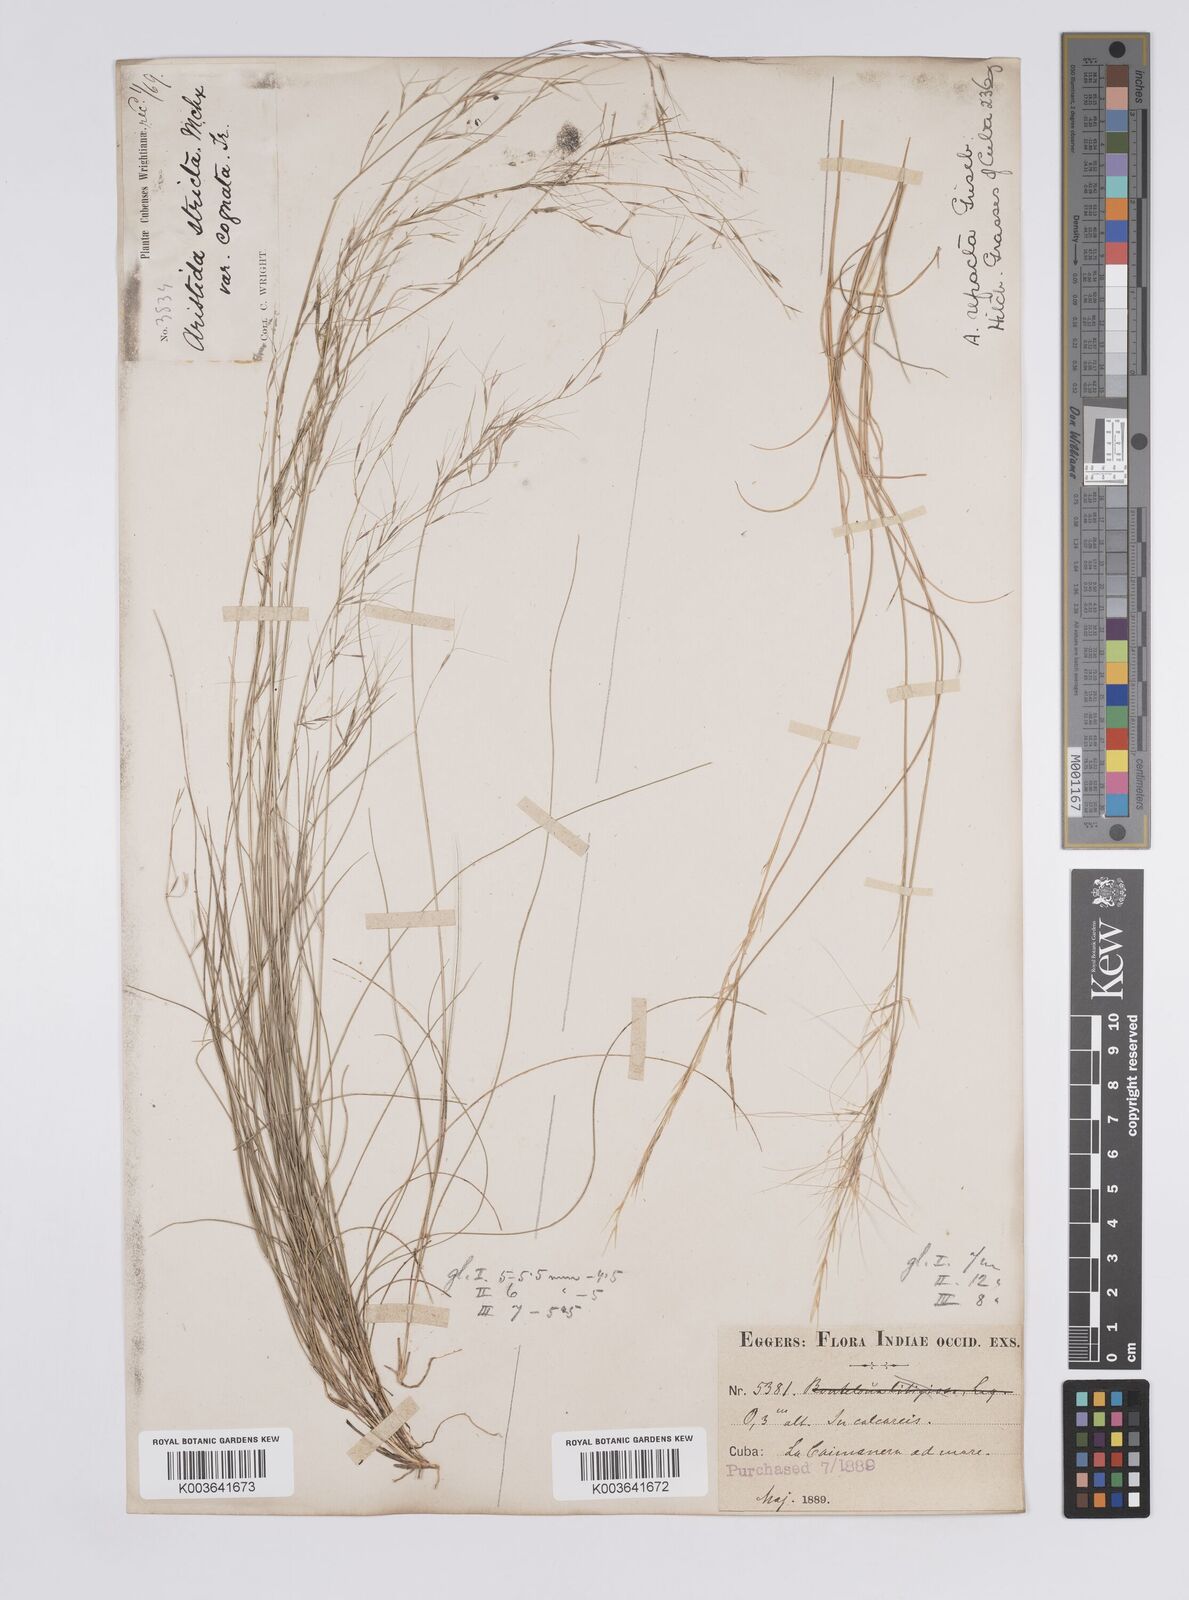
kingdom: Plantae
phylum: Tracheophyta
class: Liliopsida
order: Poales
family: Poaceae
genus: Aristida
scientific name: Aristida refracta
